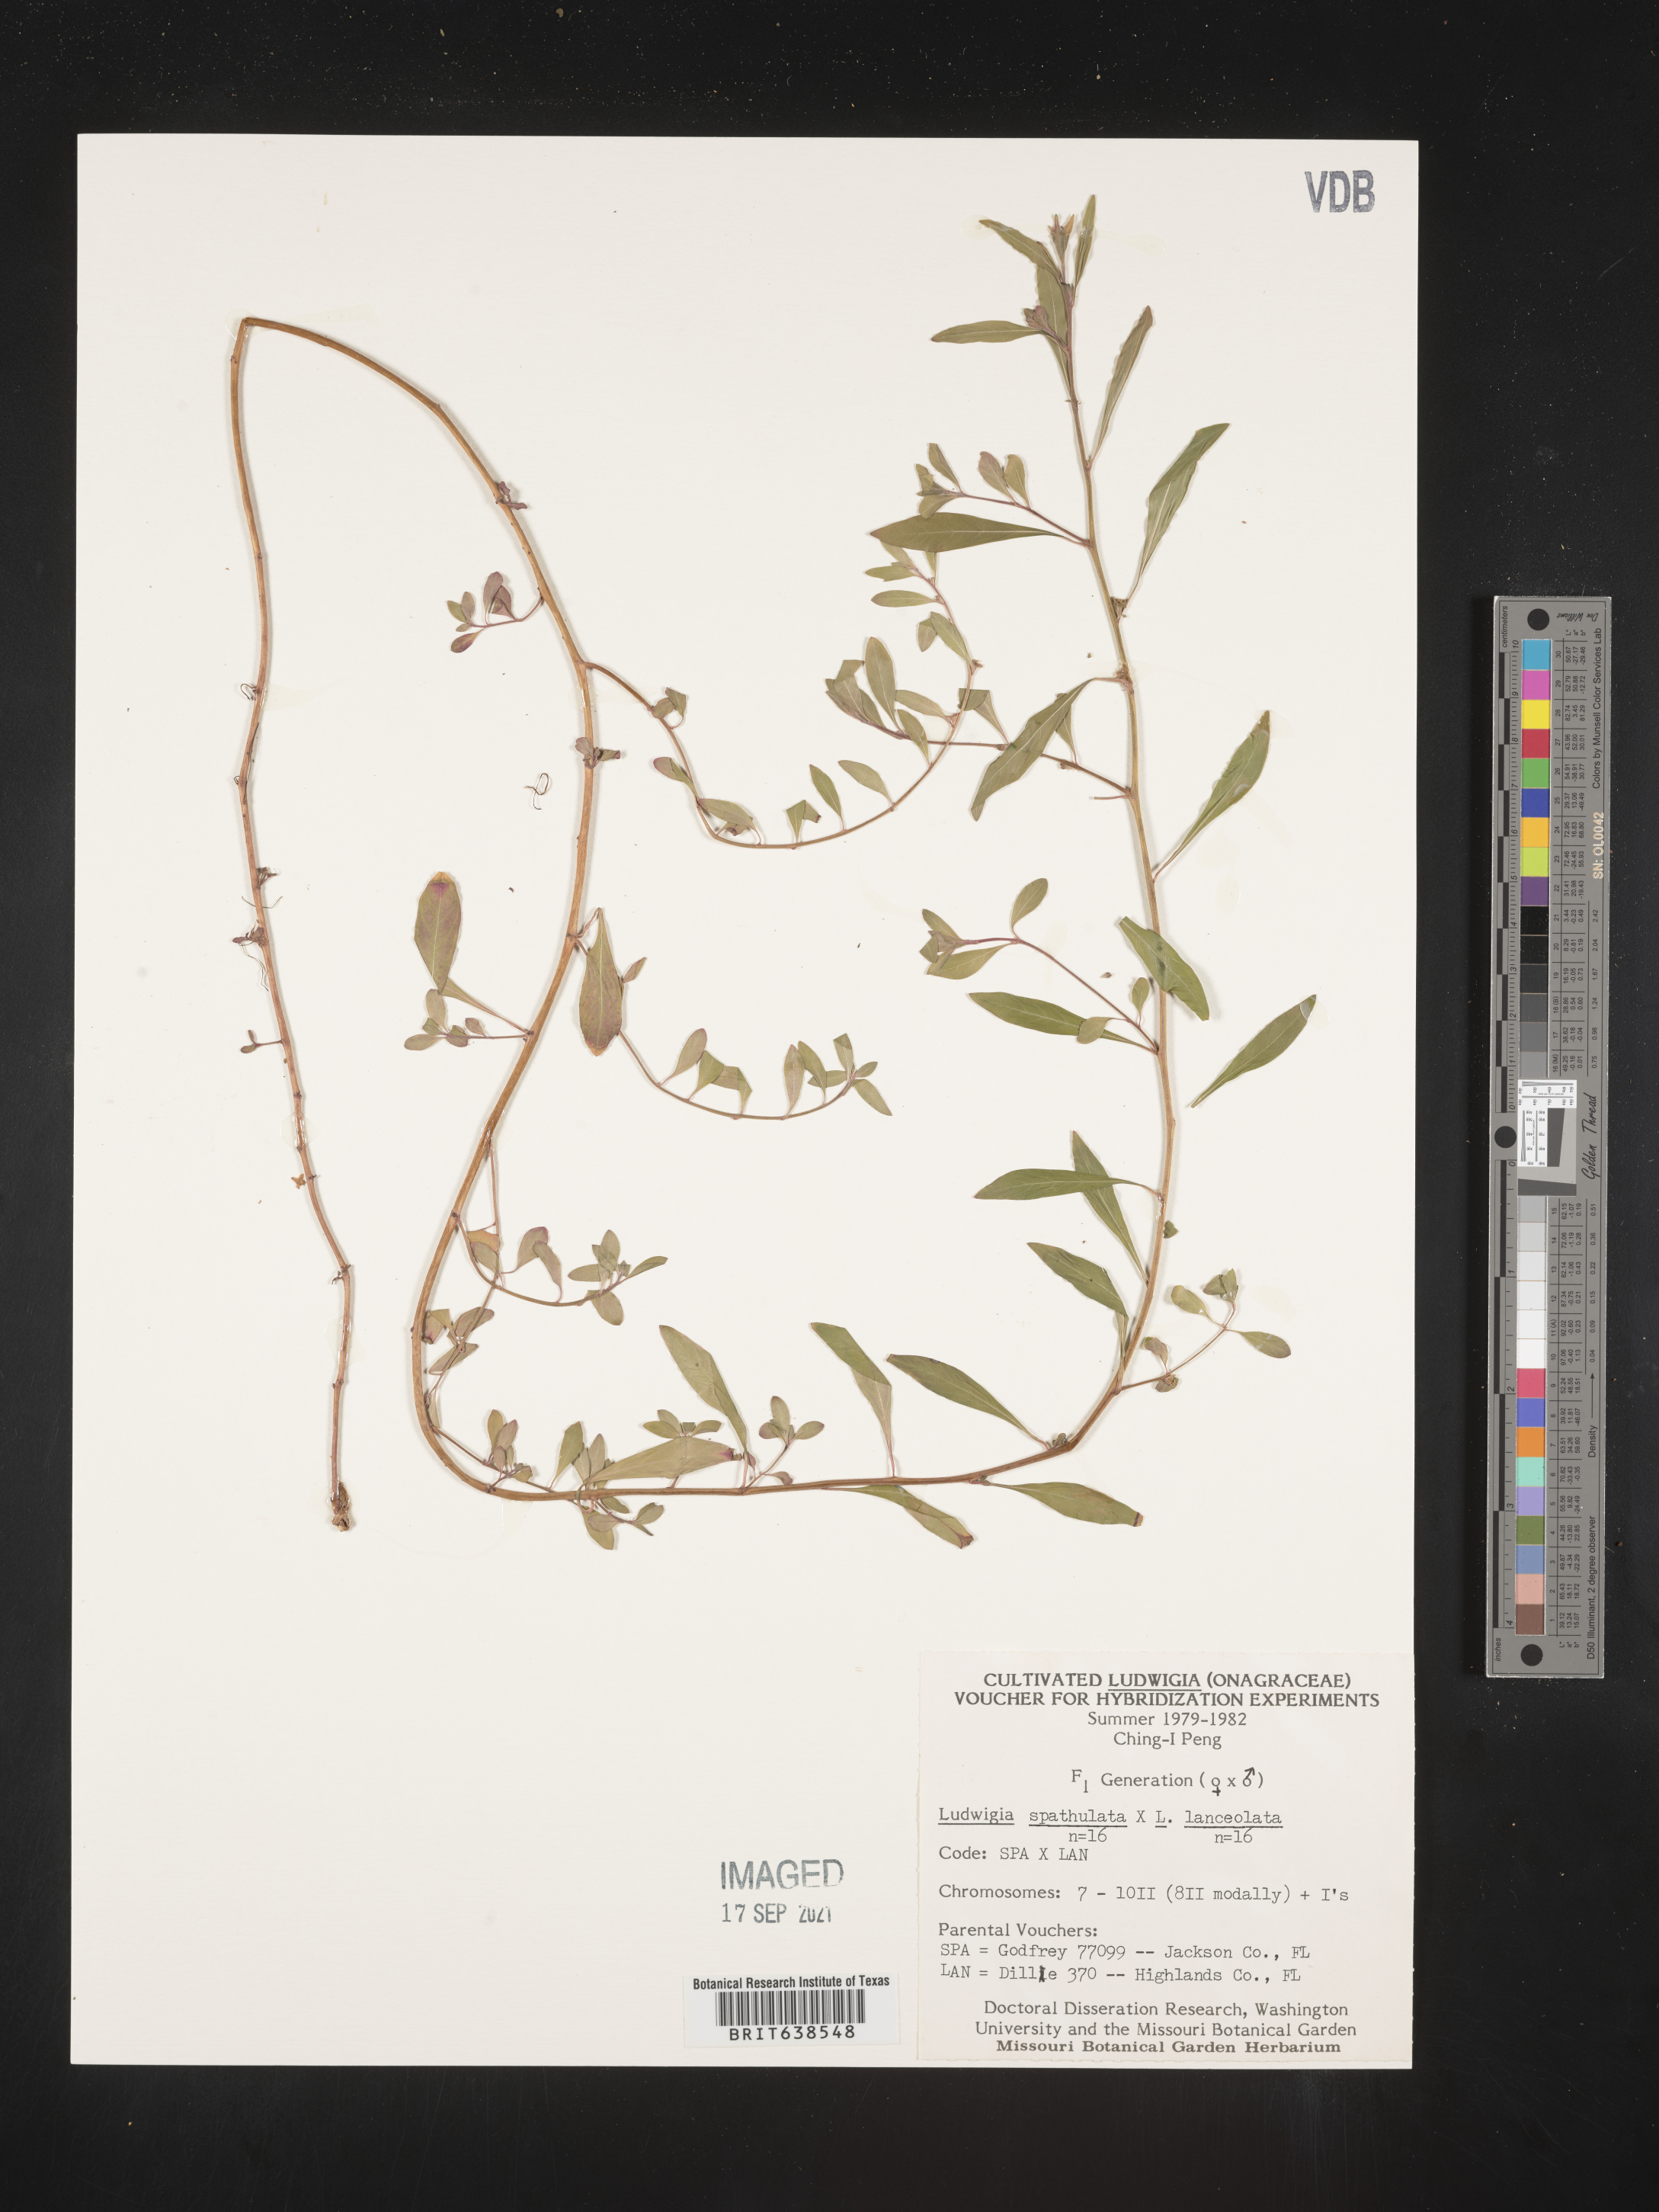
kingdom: Plantae
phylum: Tracheophyta
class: Magnoliopsida
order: Myrtales
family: Onagraceae
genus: Ludwigia
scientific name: Ludwigia
